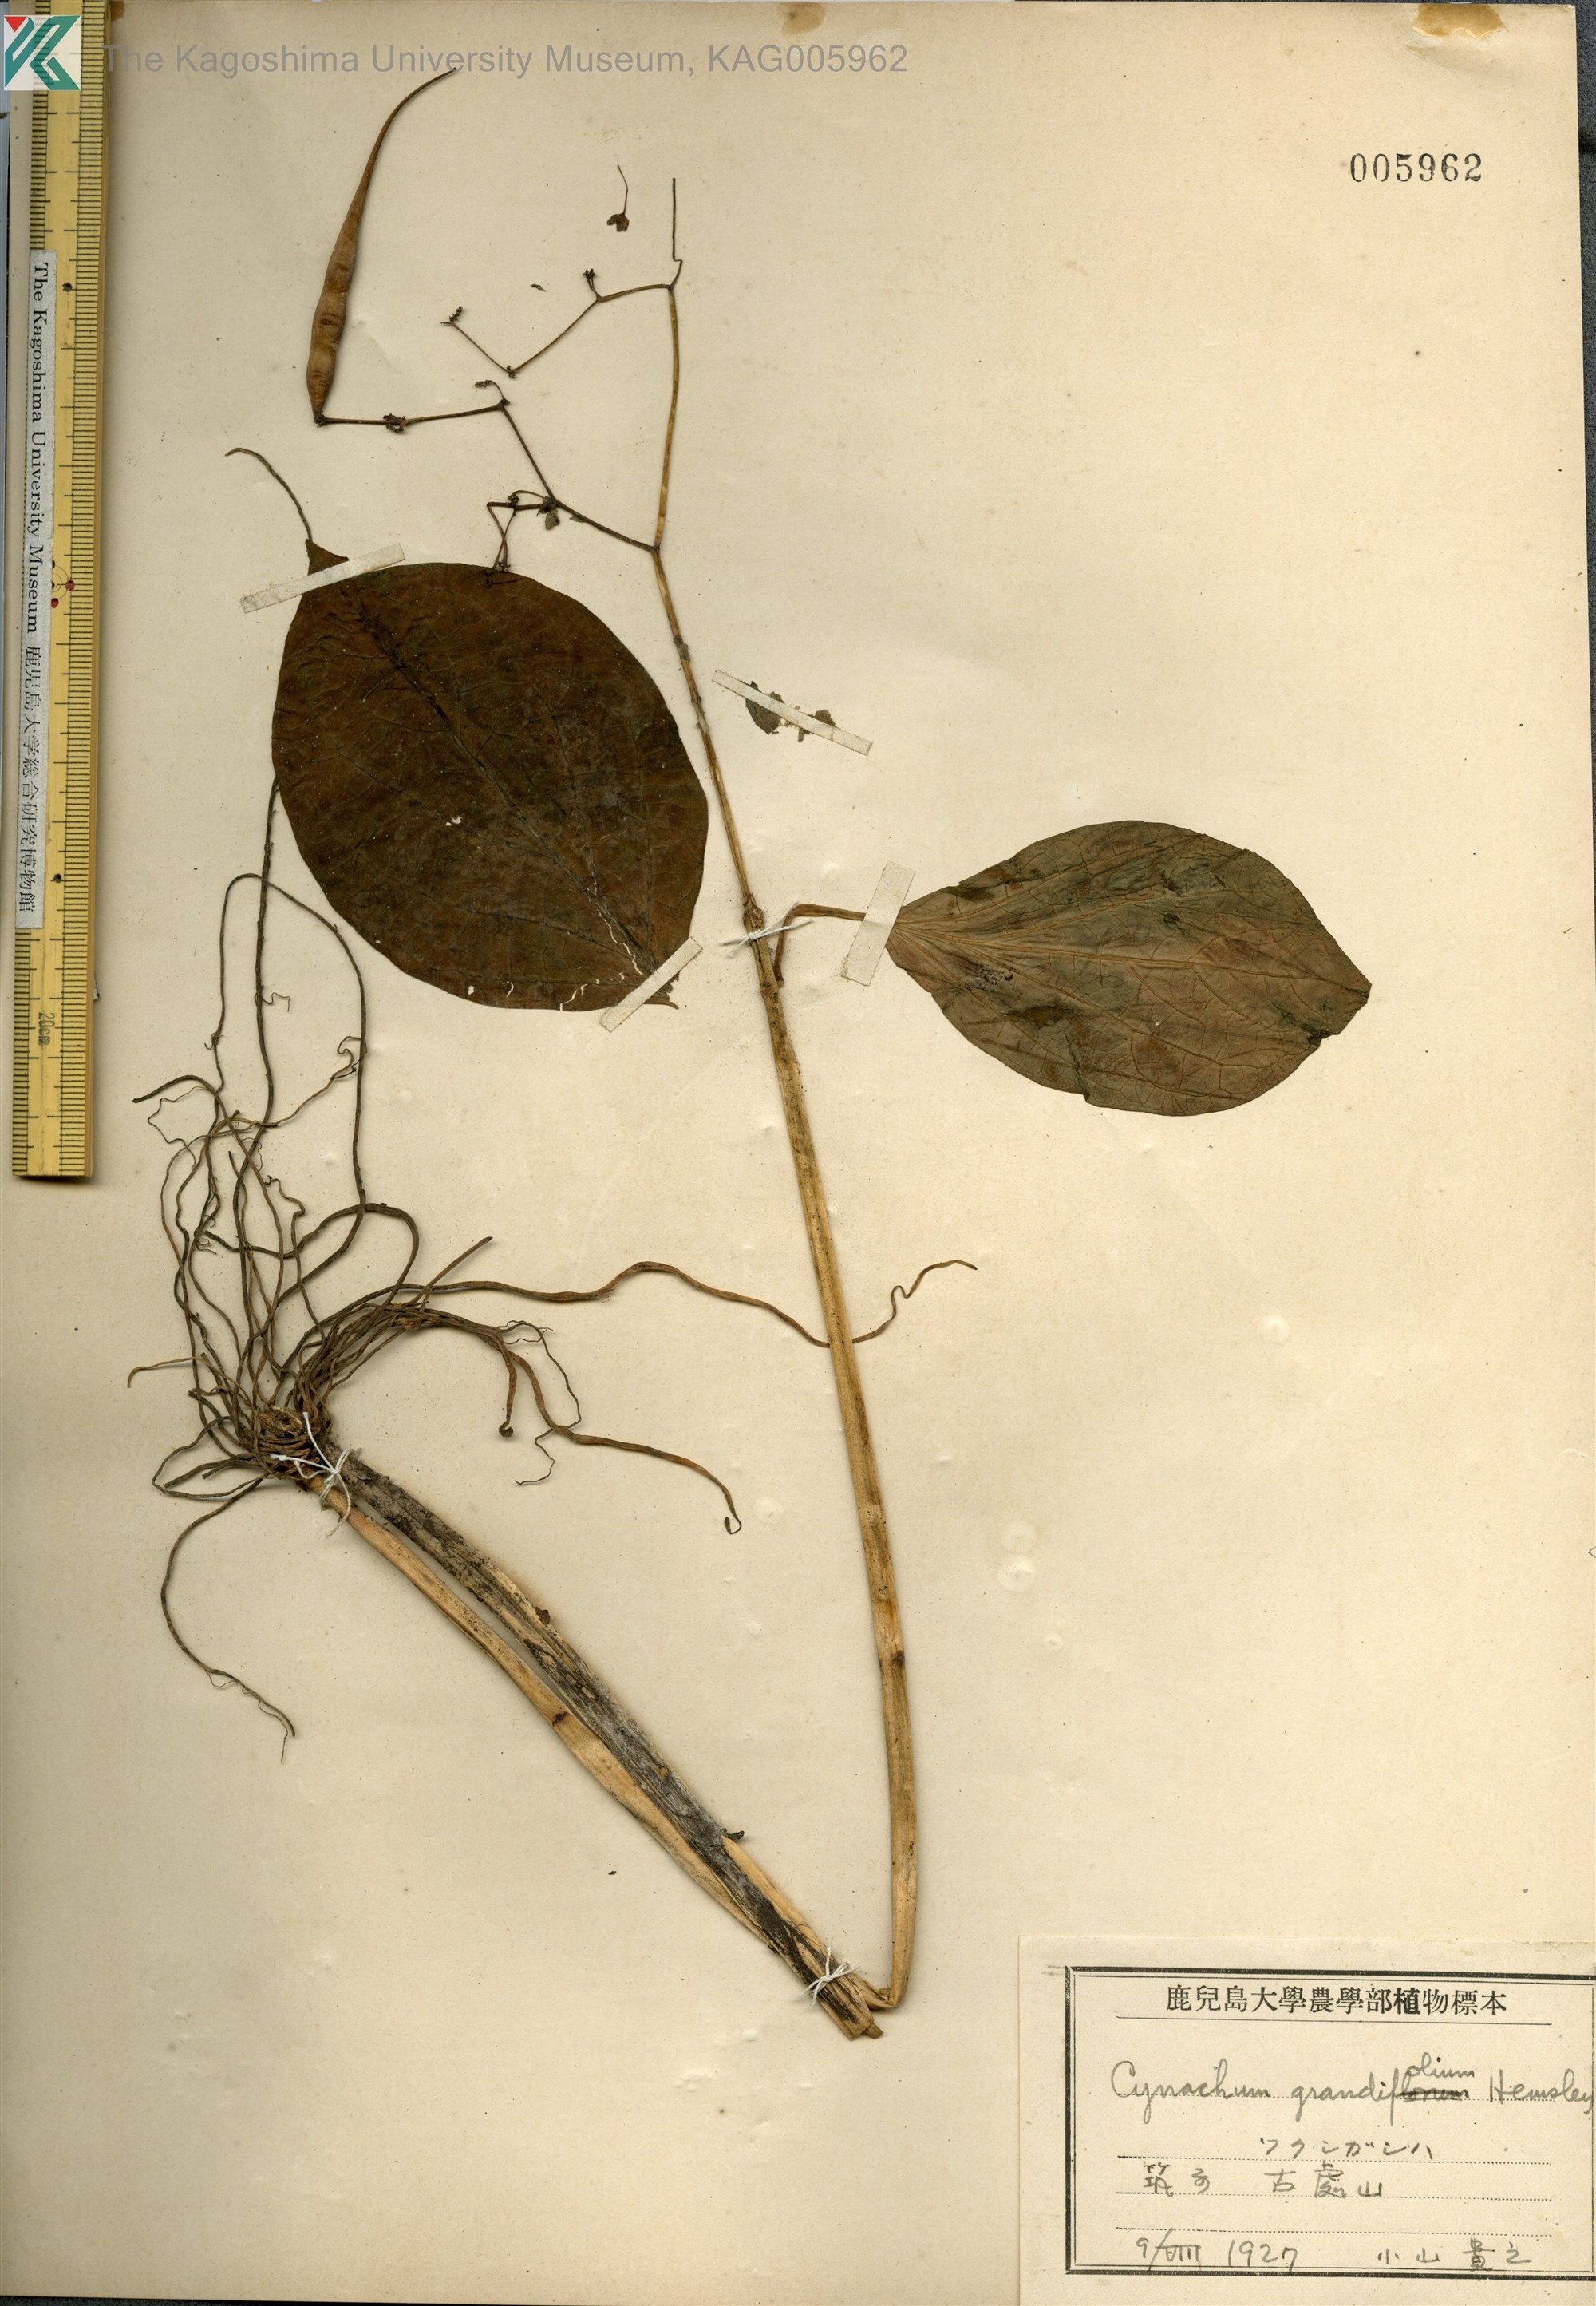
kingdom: Plantae
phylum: Tracheophyta
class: Magnoliopsida
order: Gentianales
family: Apocynaceae
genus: Vincetoxicum
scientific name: Vincetoxicum macrophyllum
